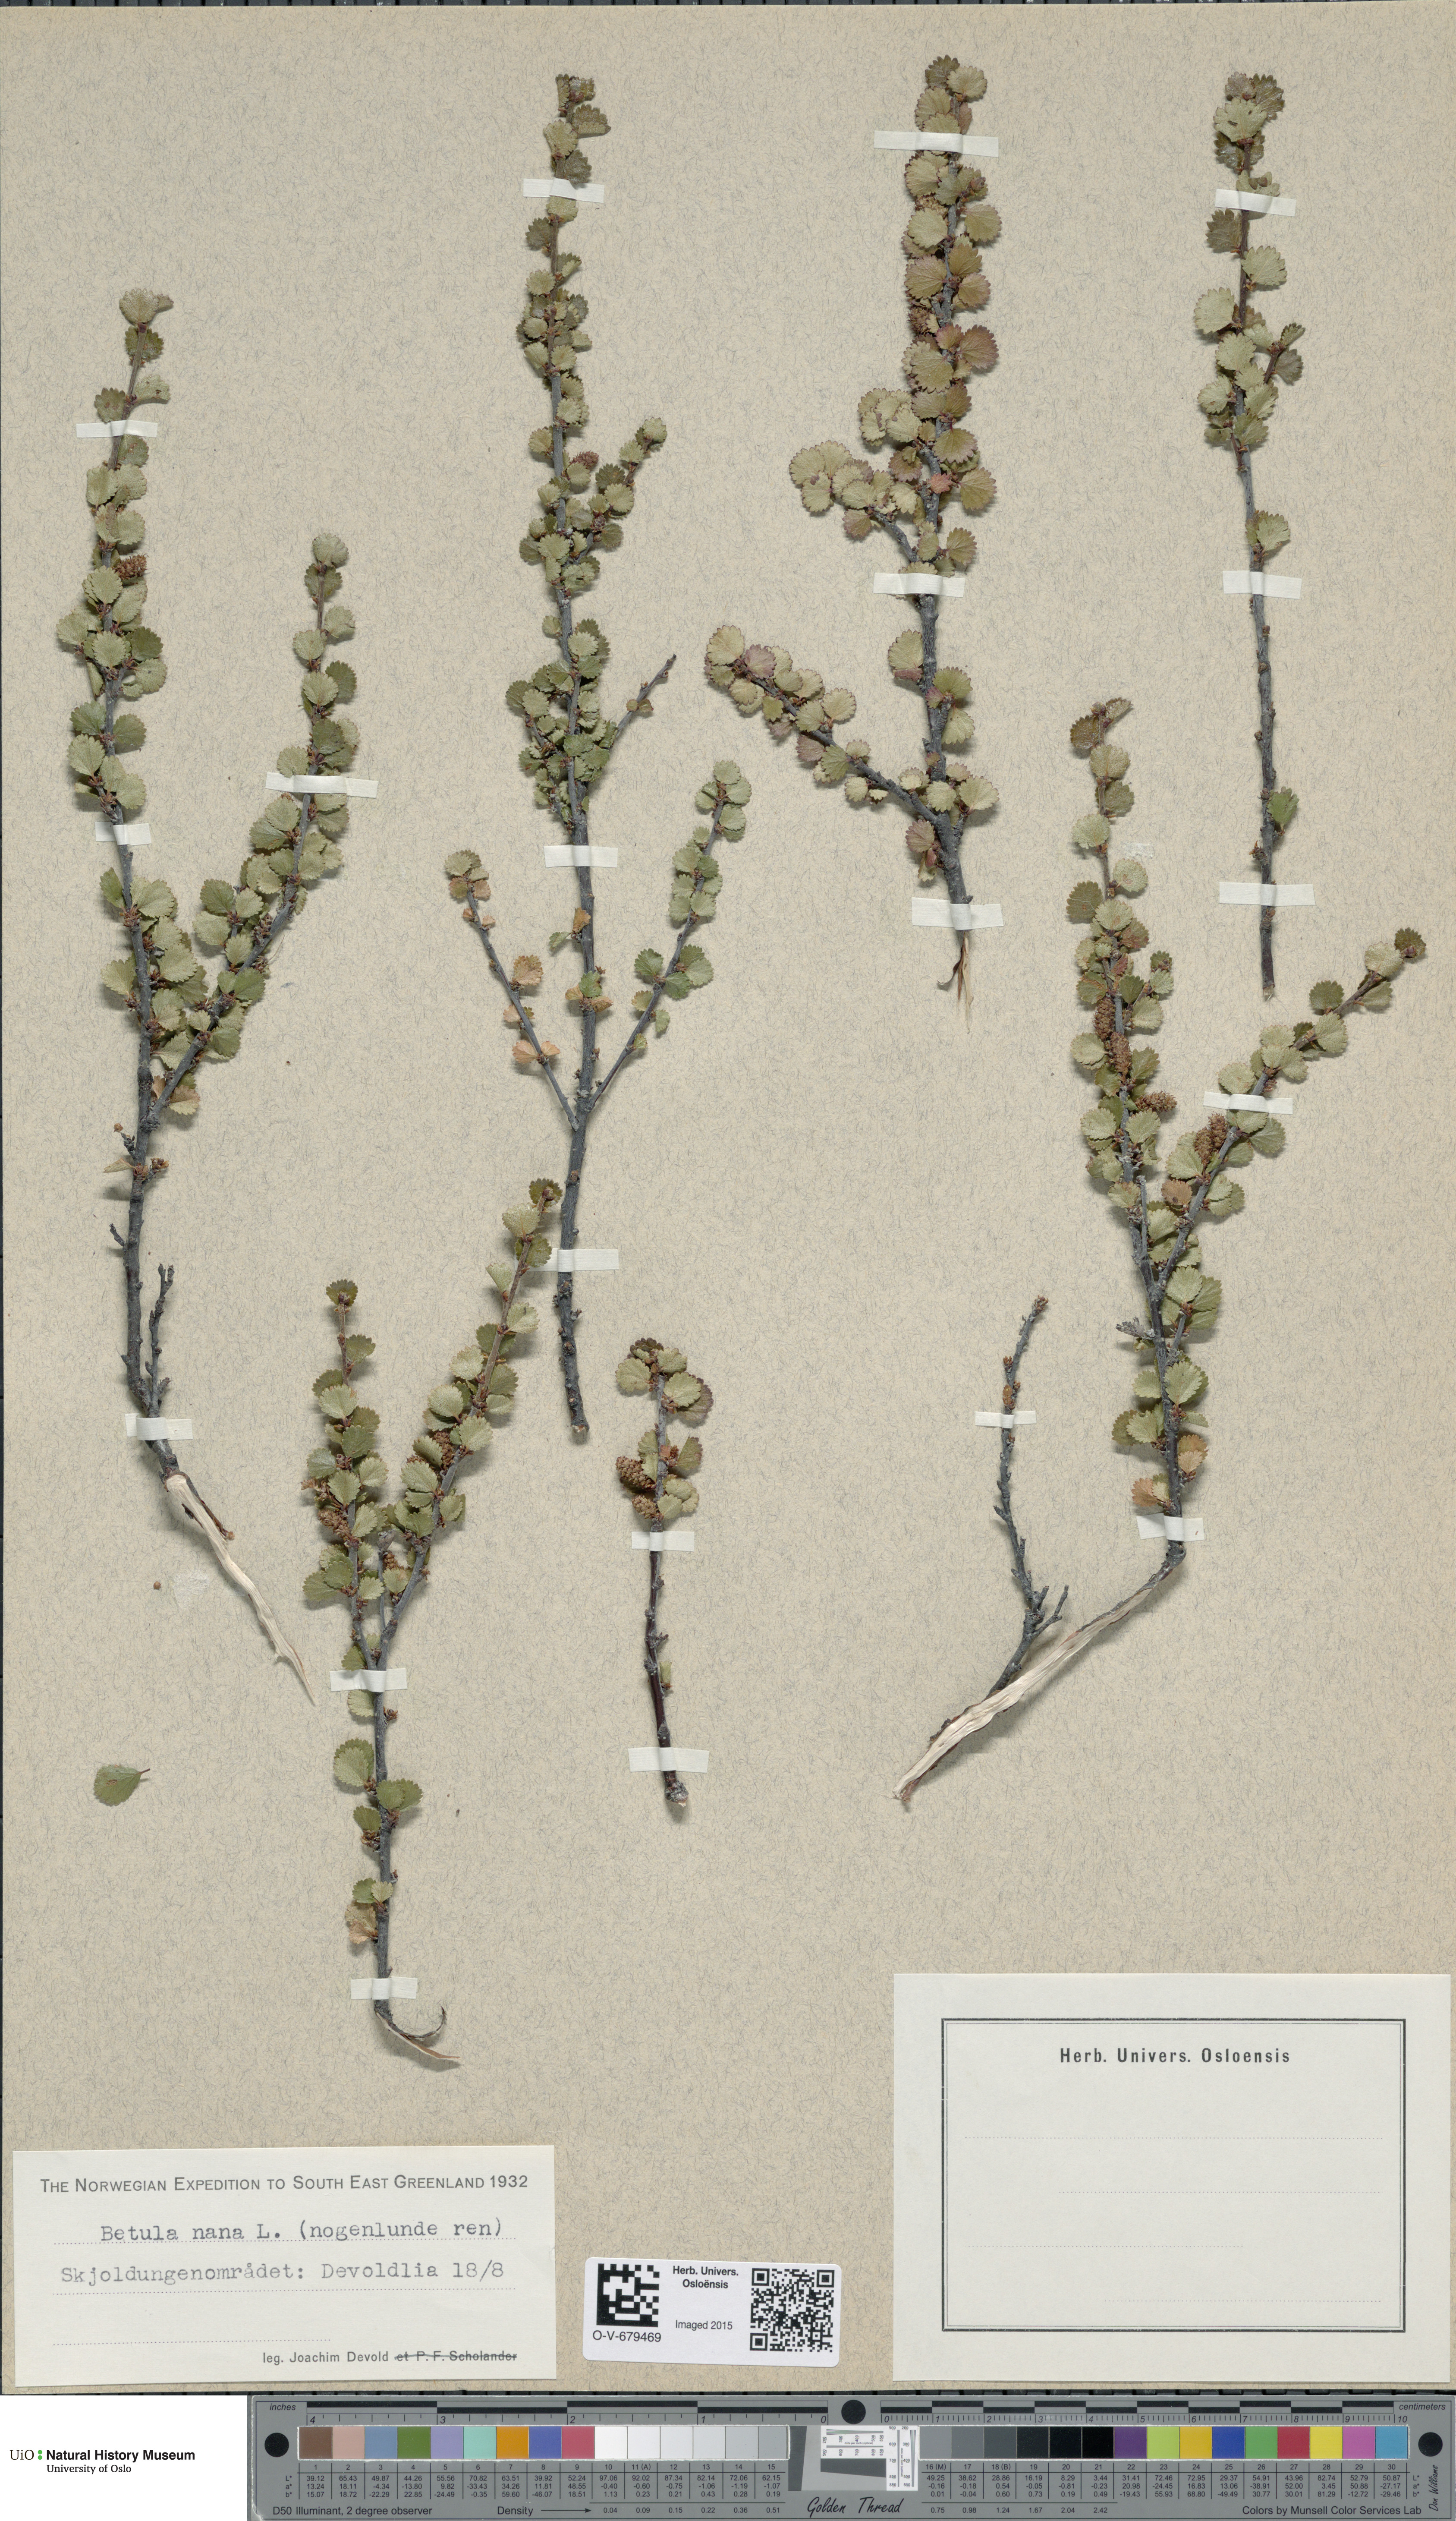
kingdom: Plantae
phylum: Tracheophyta
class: Magnoliopsida
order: Fagales
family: Betulaceae
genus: Betula
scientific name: Betula nana
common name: Arctic dwarf birch
